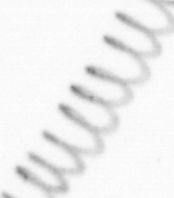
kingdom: Chromista
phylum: Ochrophyta
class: Bacillariophyceae
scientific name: Bacillariophyceae
